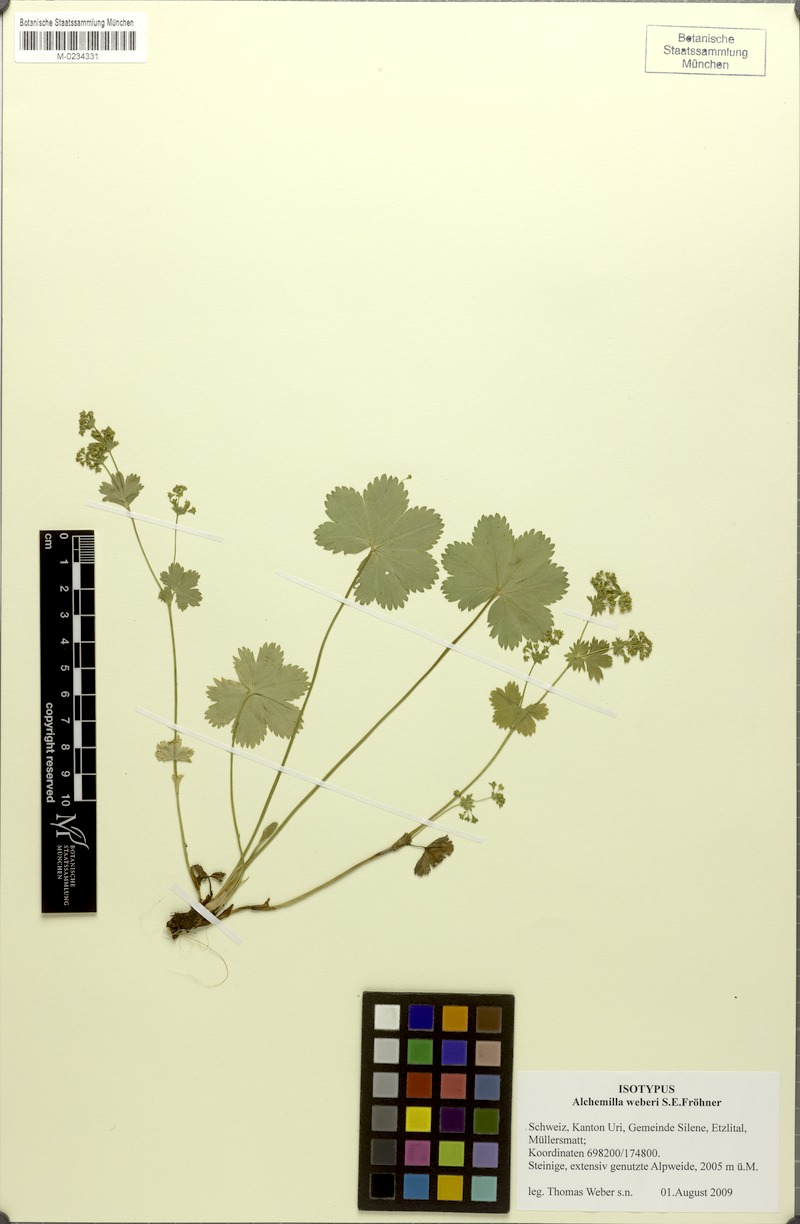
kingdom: Plantae
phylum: Tracheophyta
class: Magnoliopsida
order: Rosales
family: Rosaceae
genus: Alchemilla
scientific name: Alchemilla weberi
